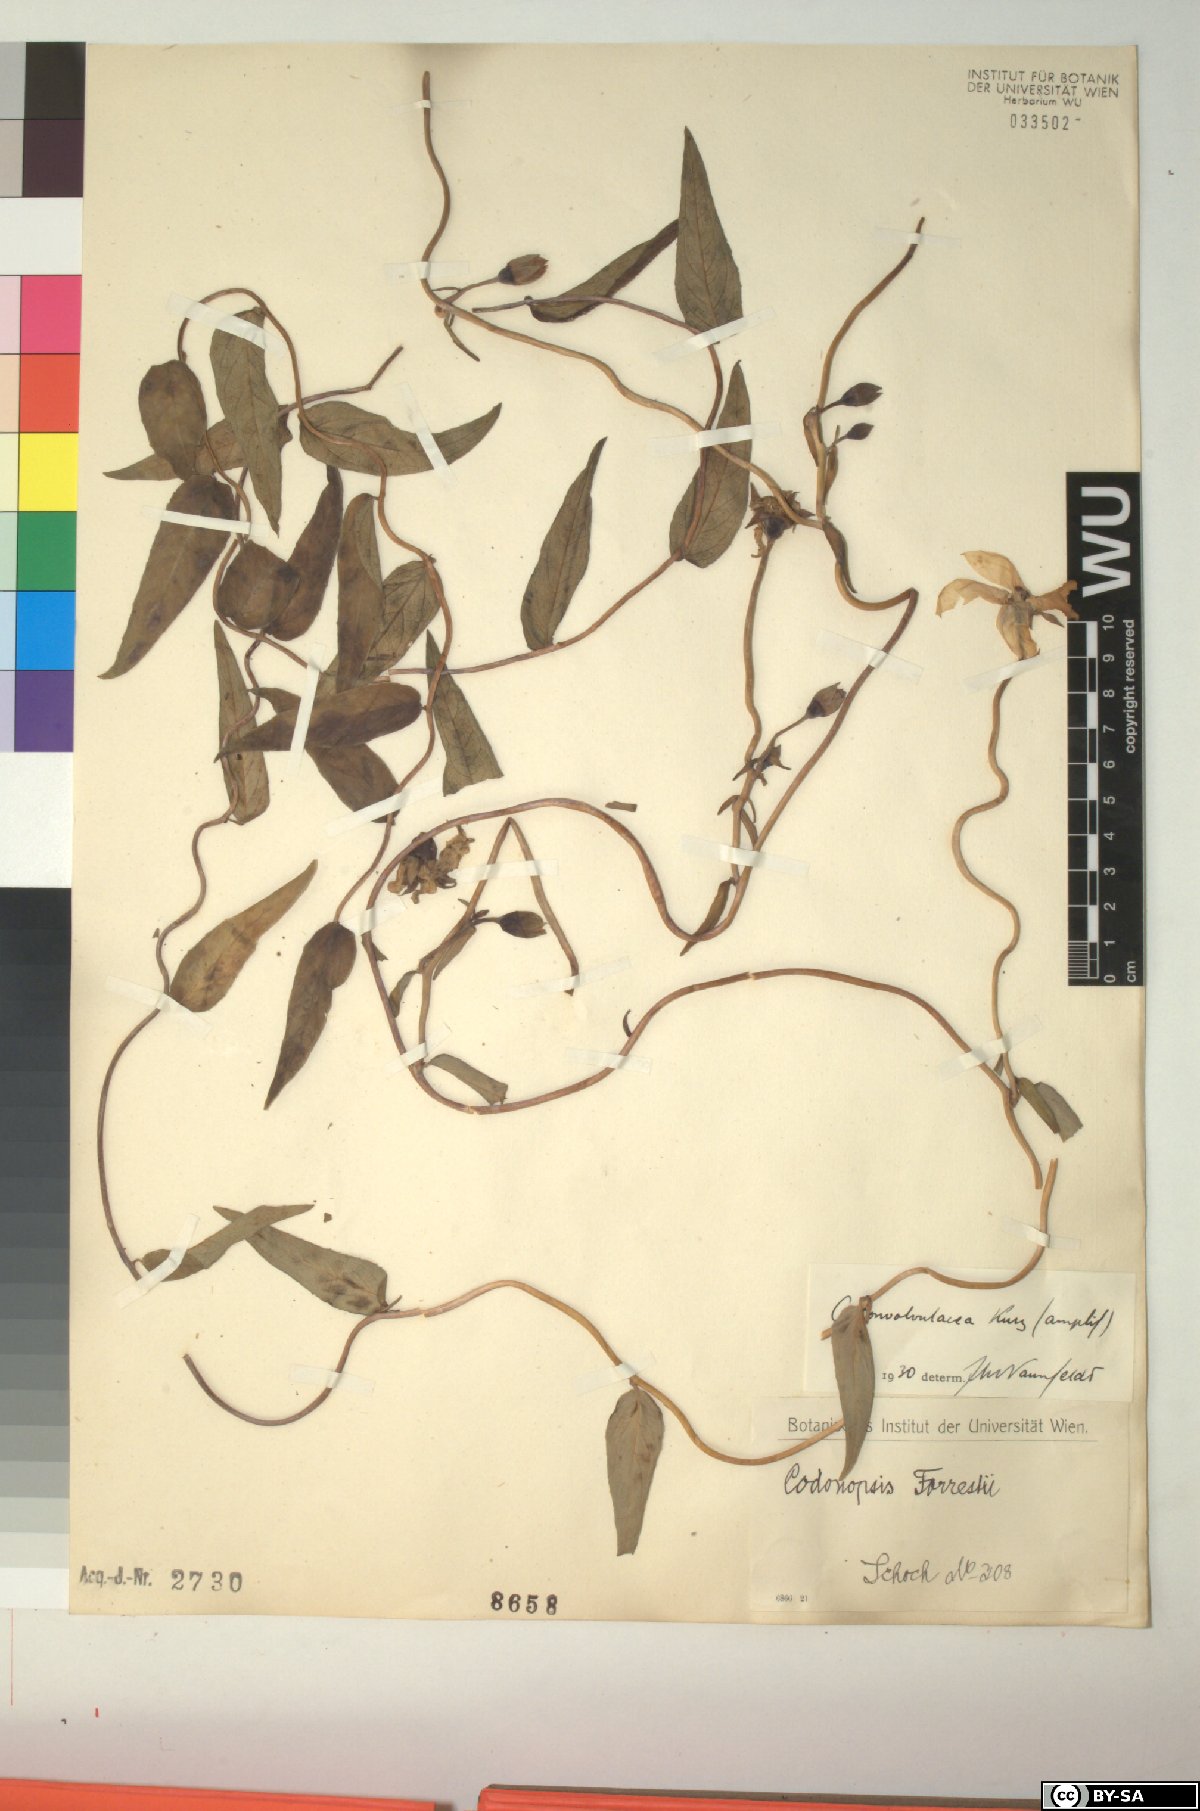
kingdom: Plantae
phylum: Tracheophyta
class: Magnoliopsida
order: Asterales
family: Campanulaceae
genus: Pseudocodon
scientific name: Pseudocodon convolvulaceus
